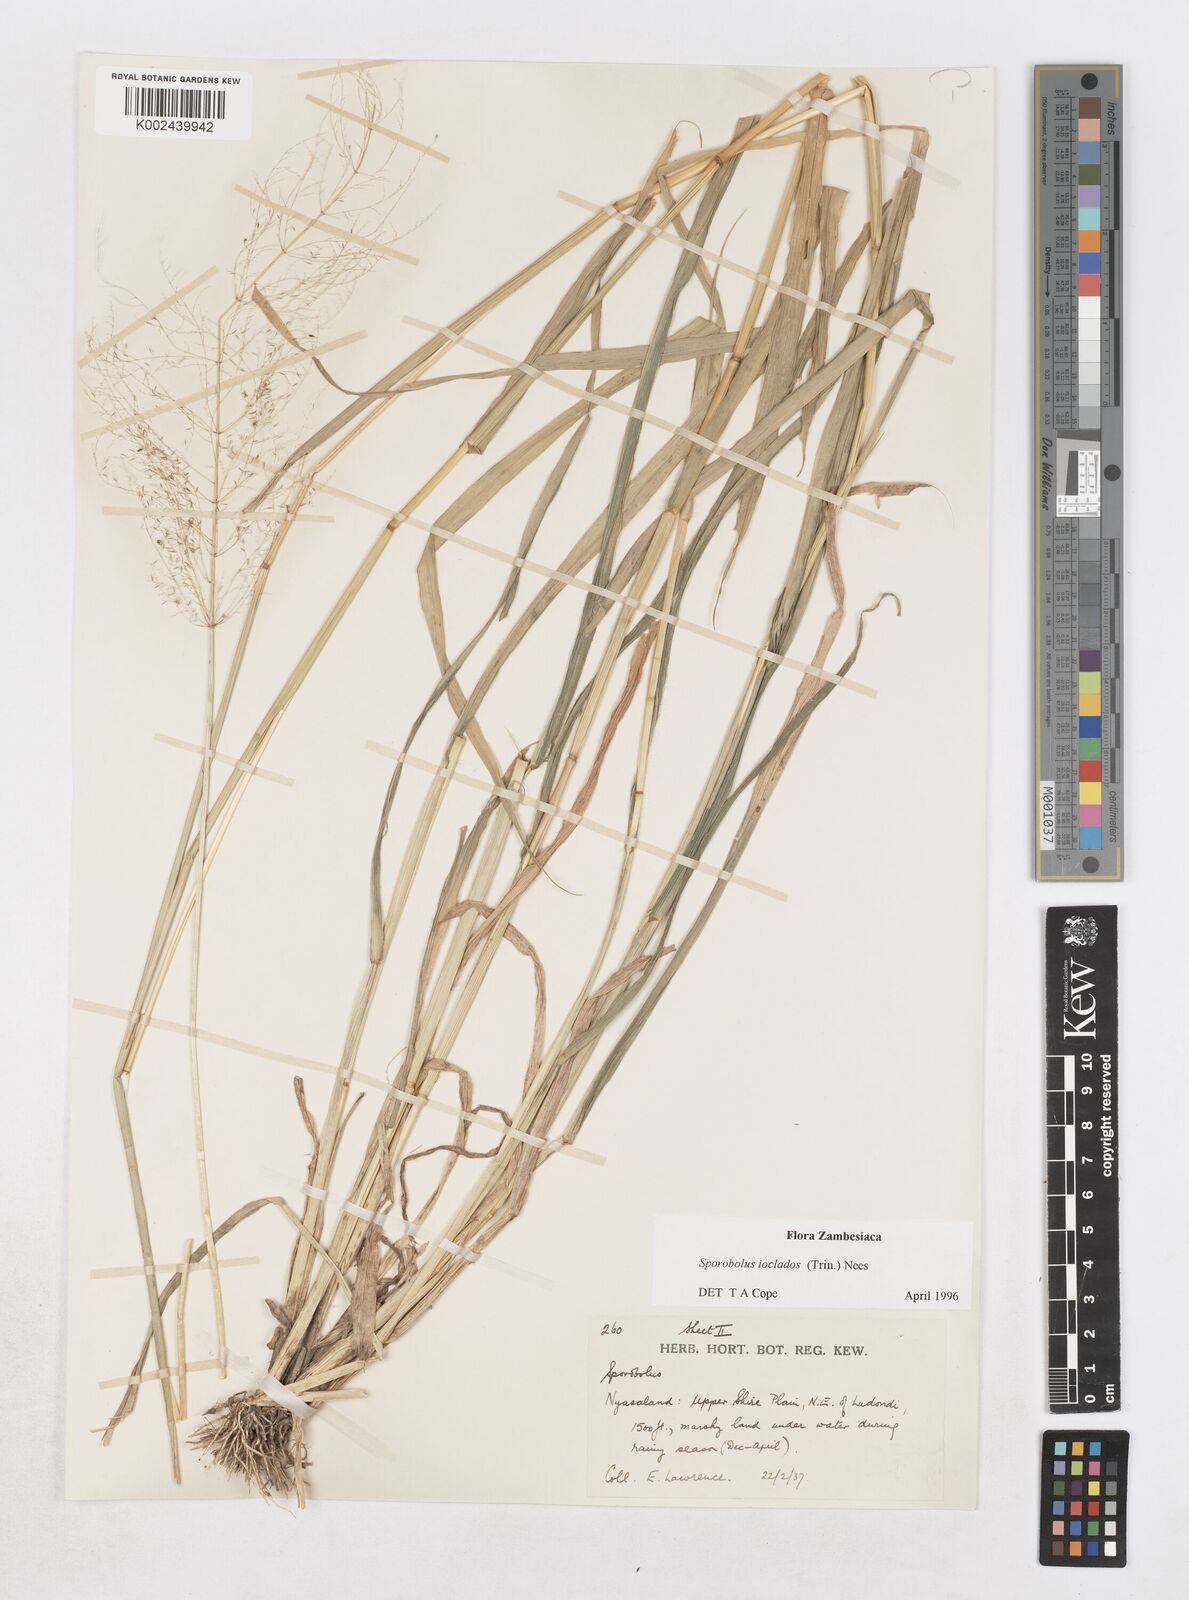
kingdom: Plantae
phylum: Tracheophyta
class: Liliopsida
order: Poales
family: Poaceae
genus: Sporobolus
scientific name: Sporobolus ioclados
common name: Pan dropseed
